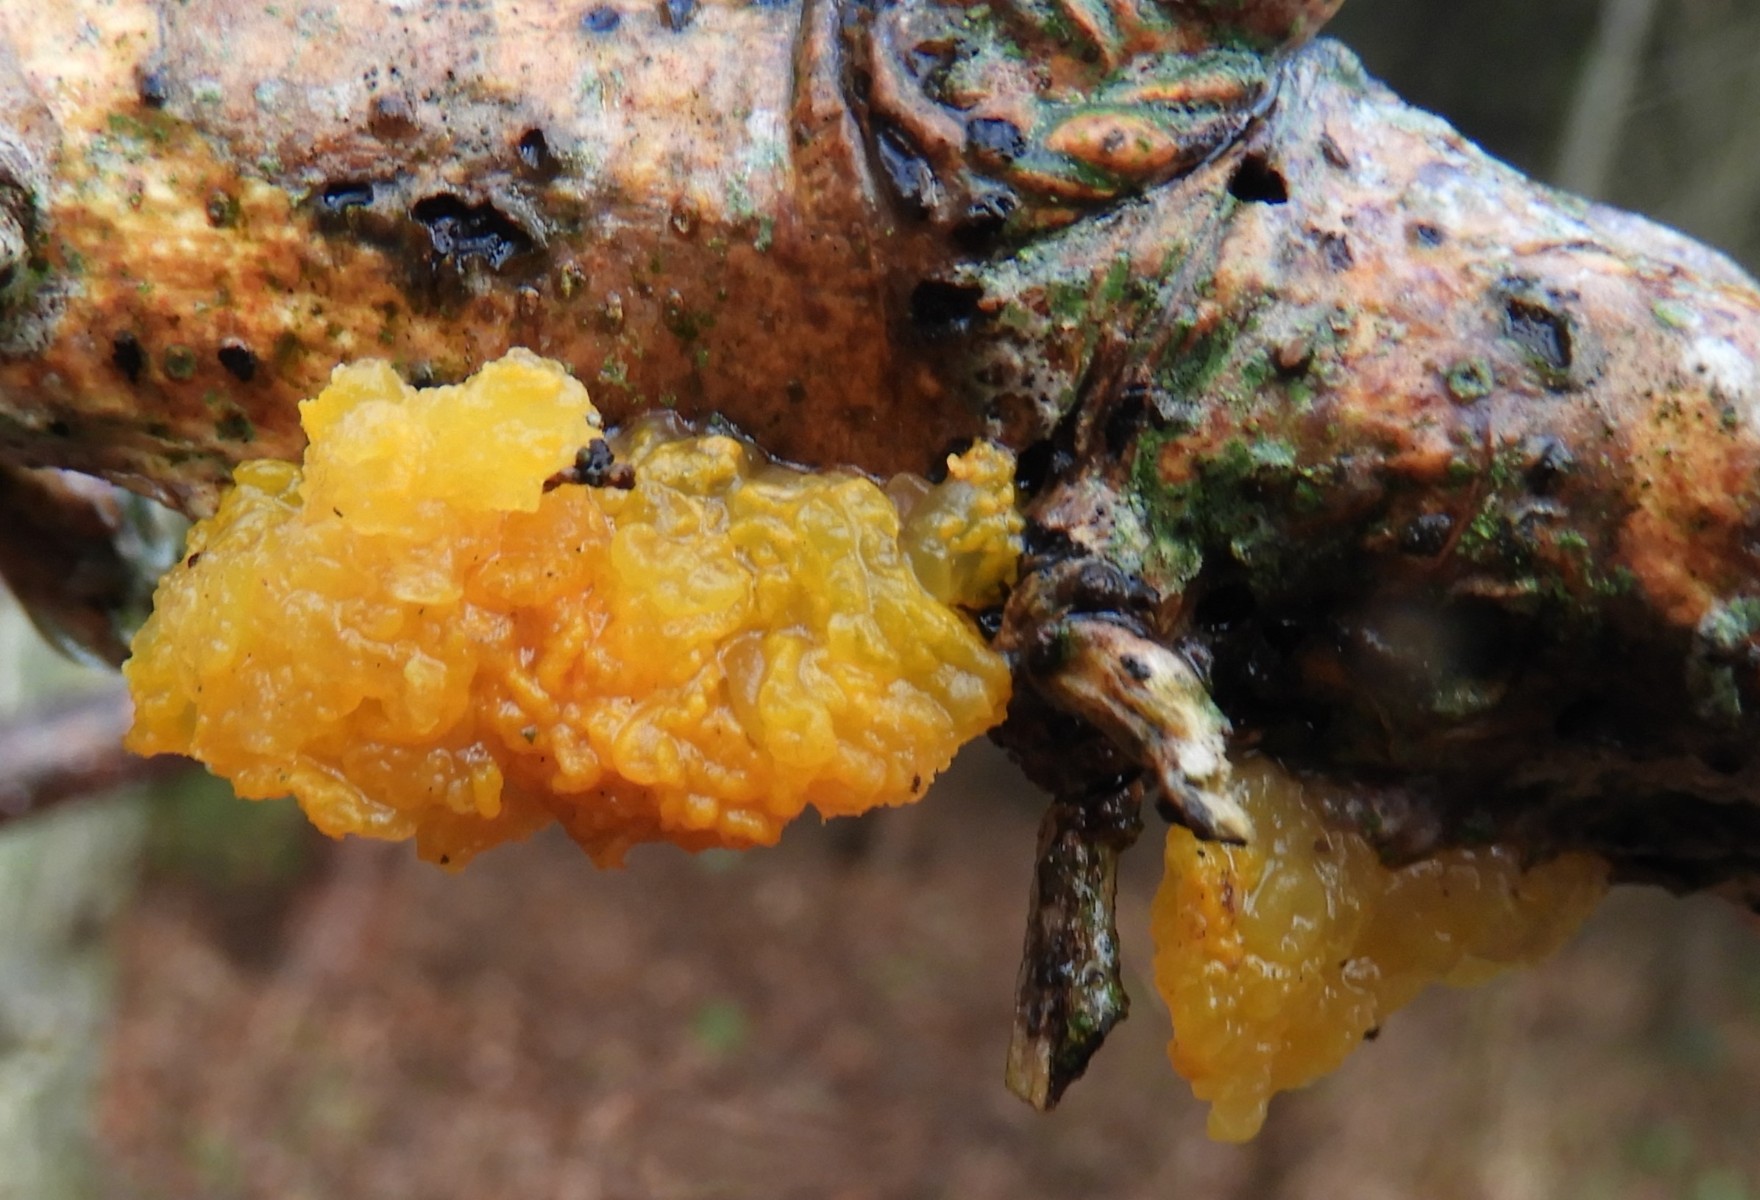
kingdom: Fungi
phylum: Basidiomycota
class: Tremellomycetes
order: Tremellales
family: Tremellaceae
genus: Tremella
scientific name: Tremella mesenterica
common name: gul bævresvamp
